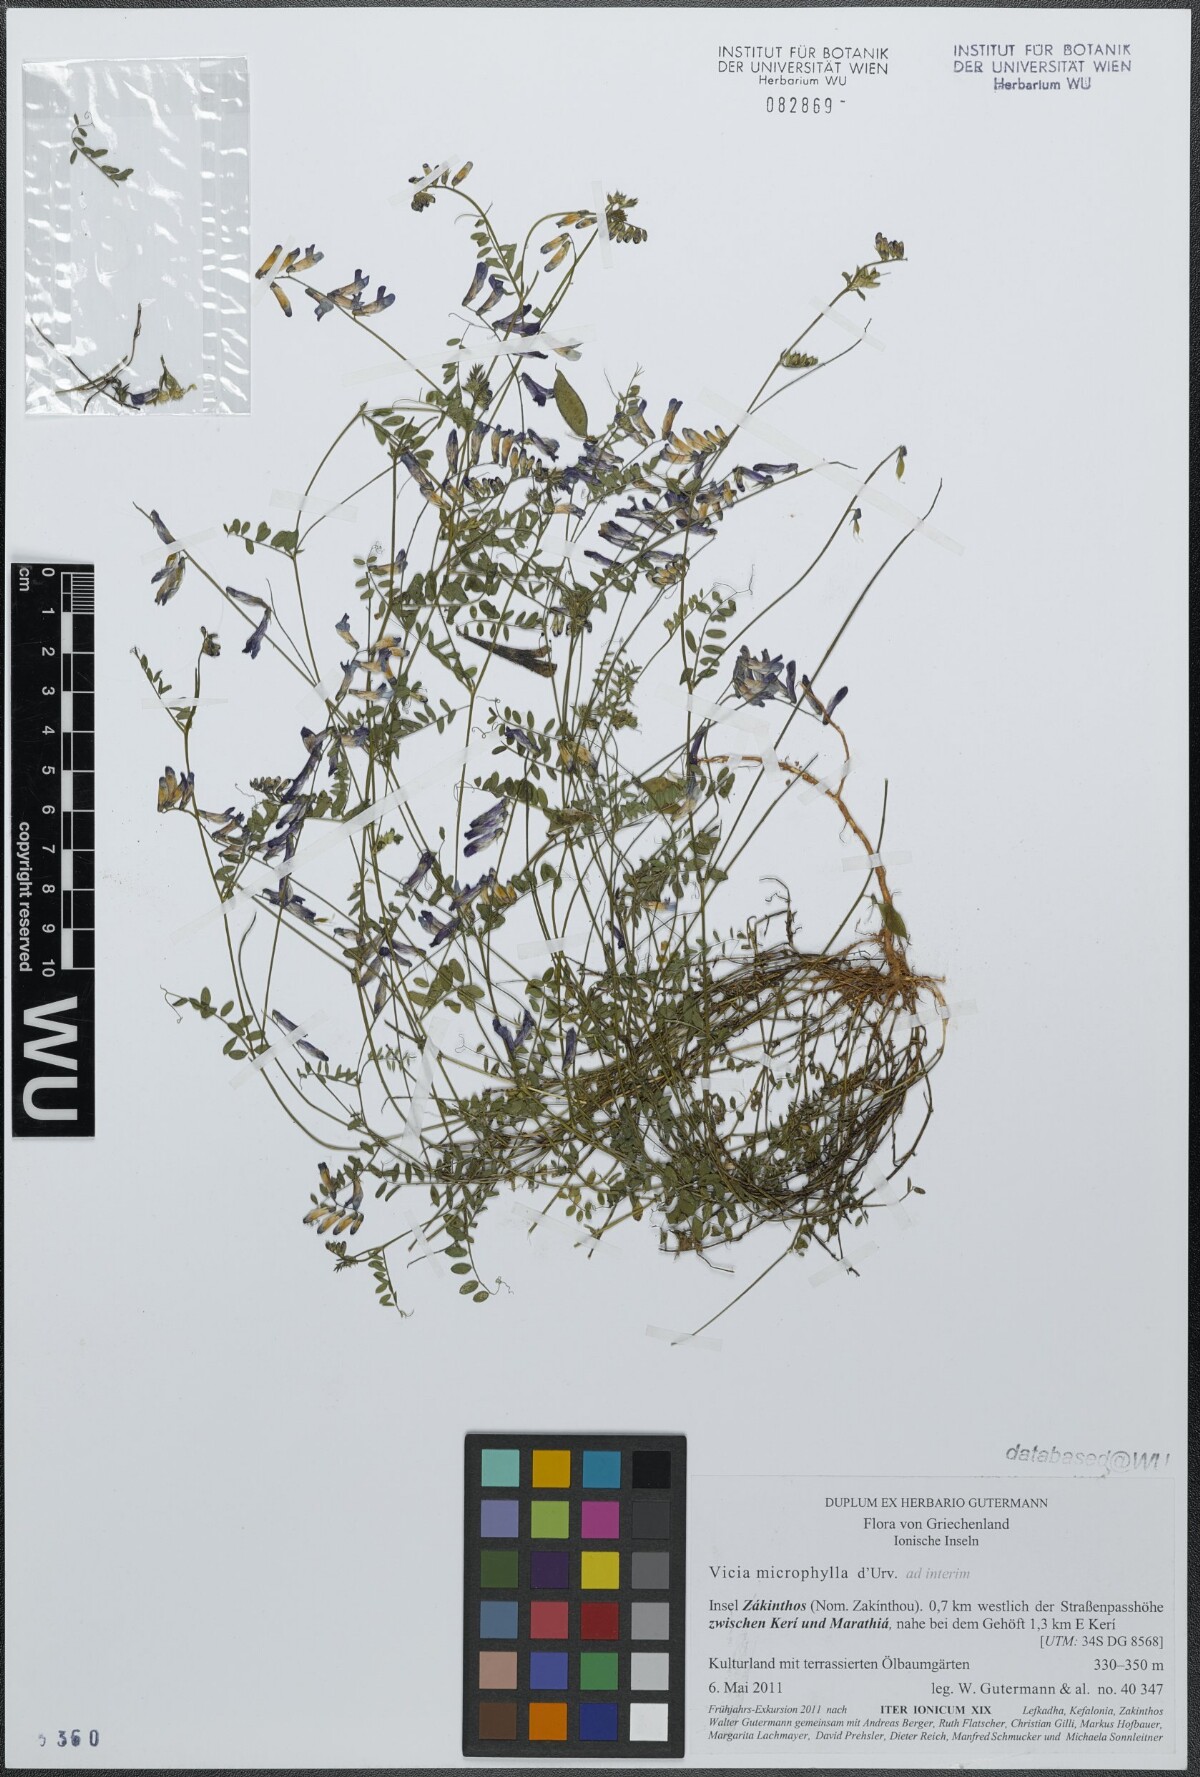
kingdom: Plantae
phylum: Tracheophyta
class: Magnoliopsida
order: Fabales
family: Fabaceae
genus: Vicia
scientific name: Vicia villosa
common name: Fodder vetch
